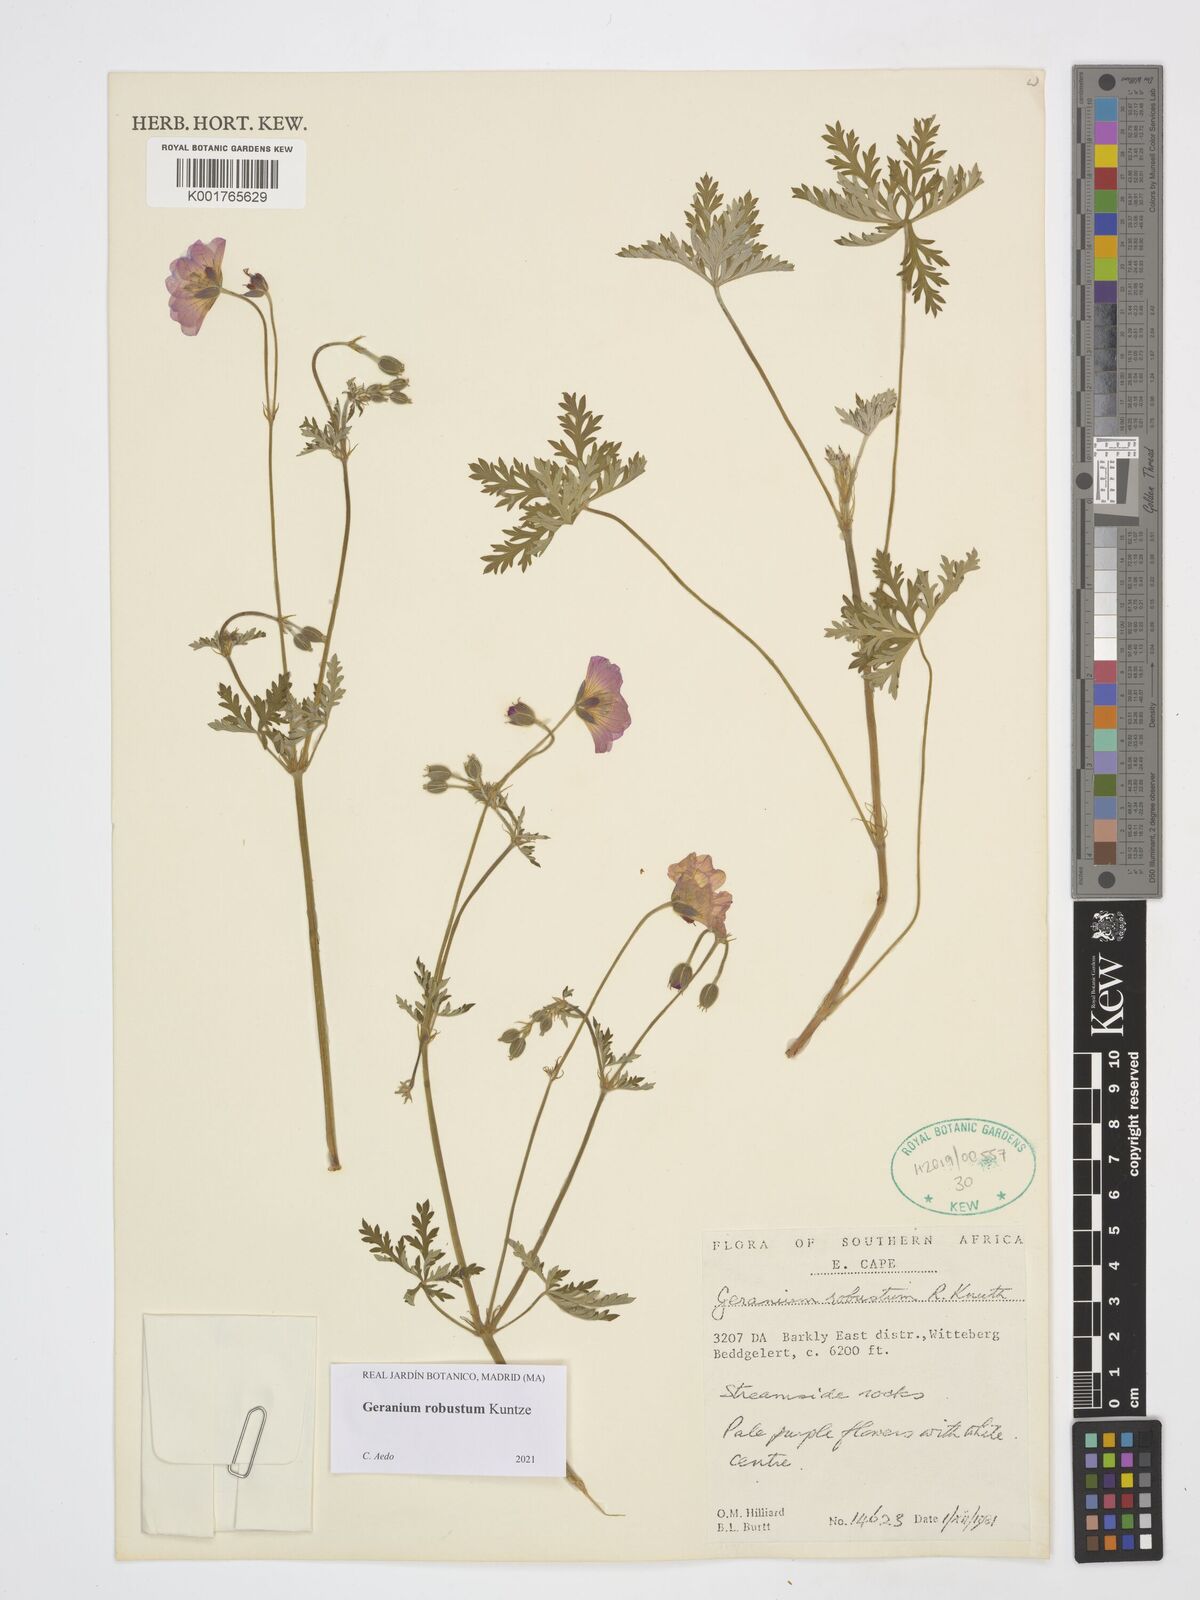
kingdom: Plantae
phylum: Tracheophyta
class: Magnoliopsida
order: Geraniales
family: Geraniaceae
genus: Geranium
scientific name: Geranium robustum
